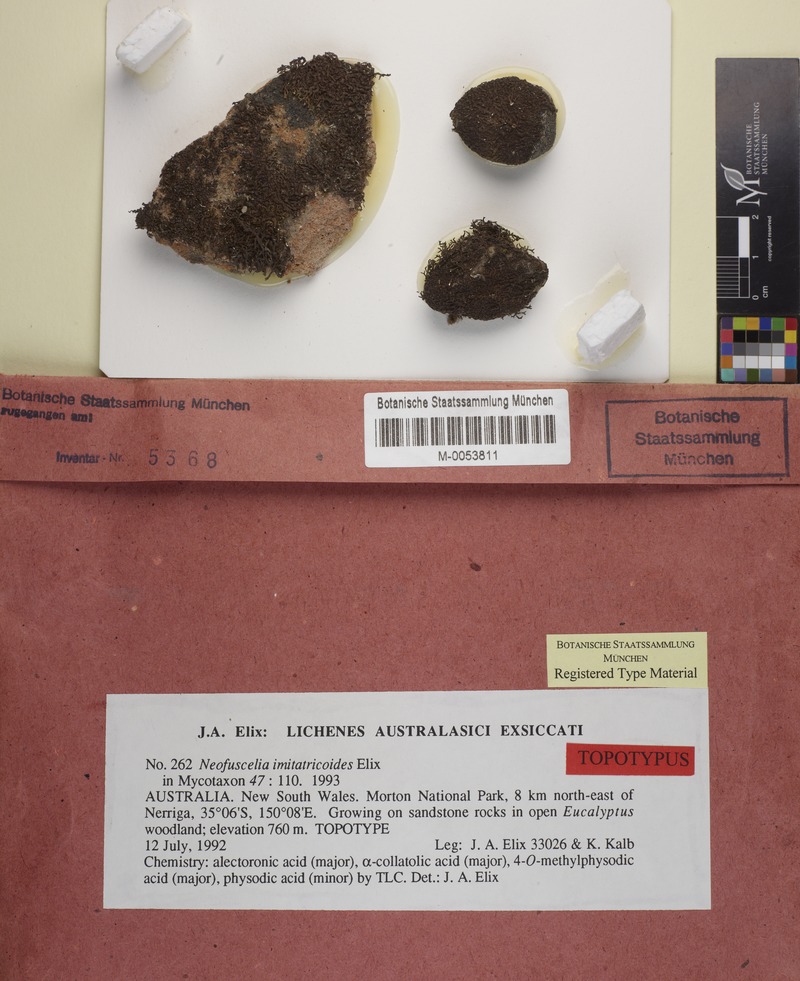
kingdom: Fungi
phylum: Ascomycota
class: Lecanoromycetes
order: Lecanorales
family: Parmeliaceae
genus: Xanthoparmelia
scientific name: Xanthoparmelia imitratricoides
